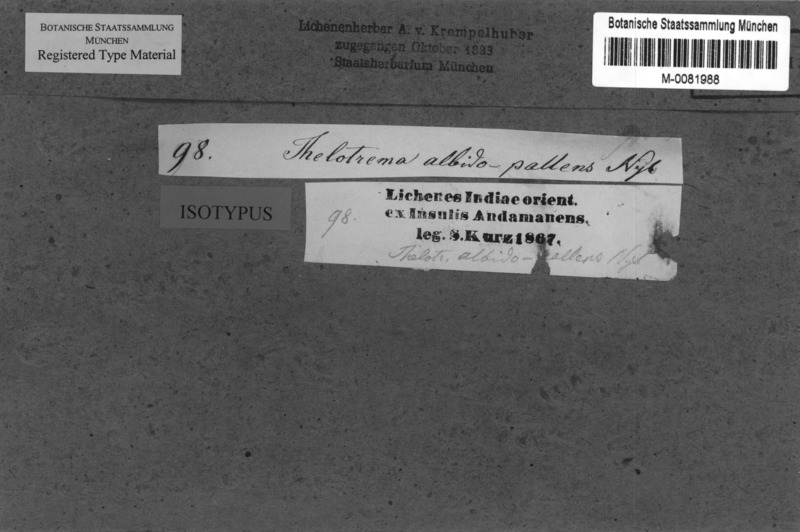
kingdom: Fungi
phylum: Ascomycota
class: Lecanoromycetes
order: Ostropales
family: Graphidaceae
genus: Thelotrema
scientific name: Thelotrema albidopallens
